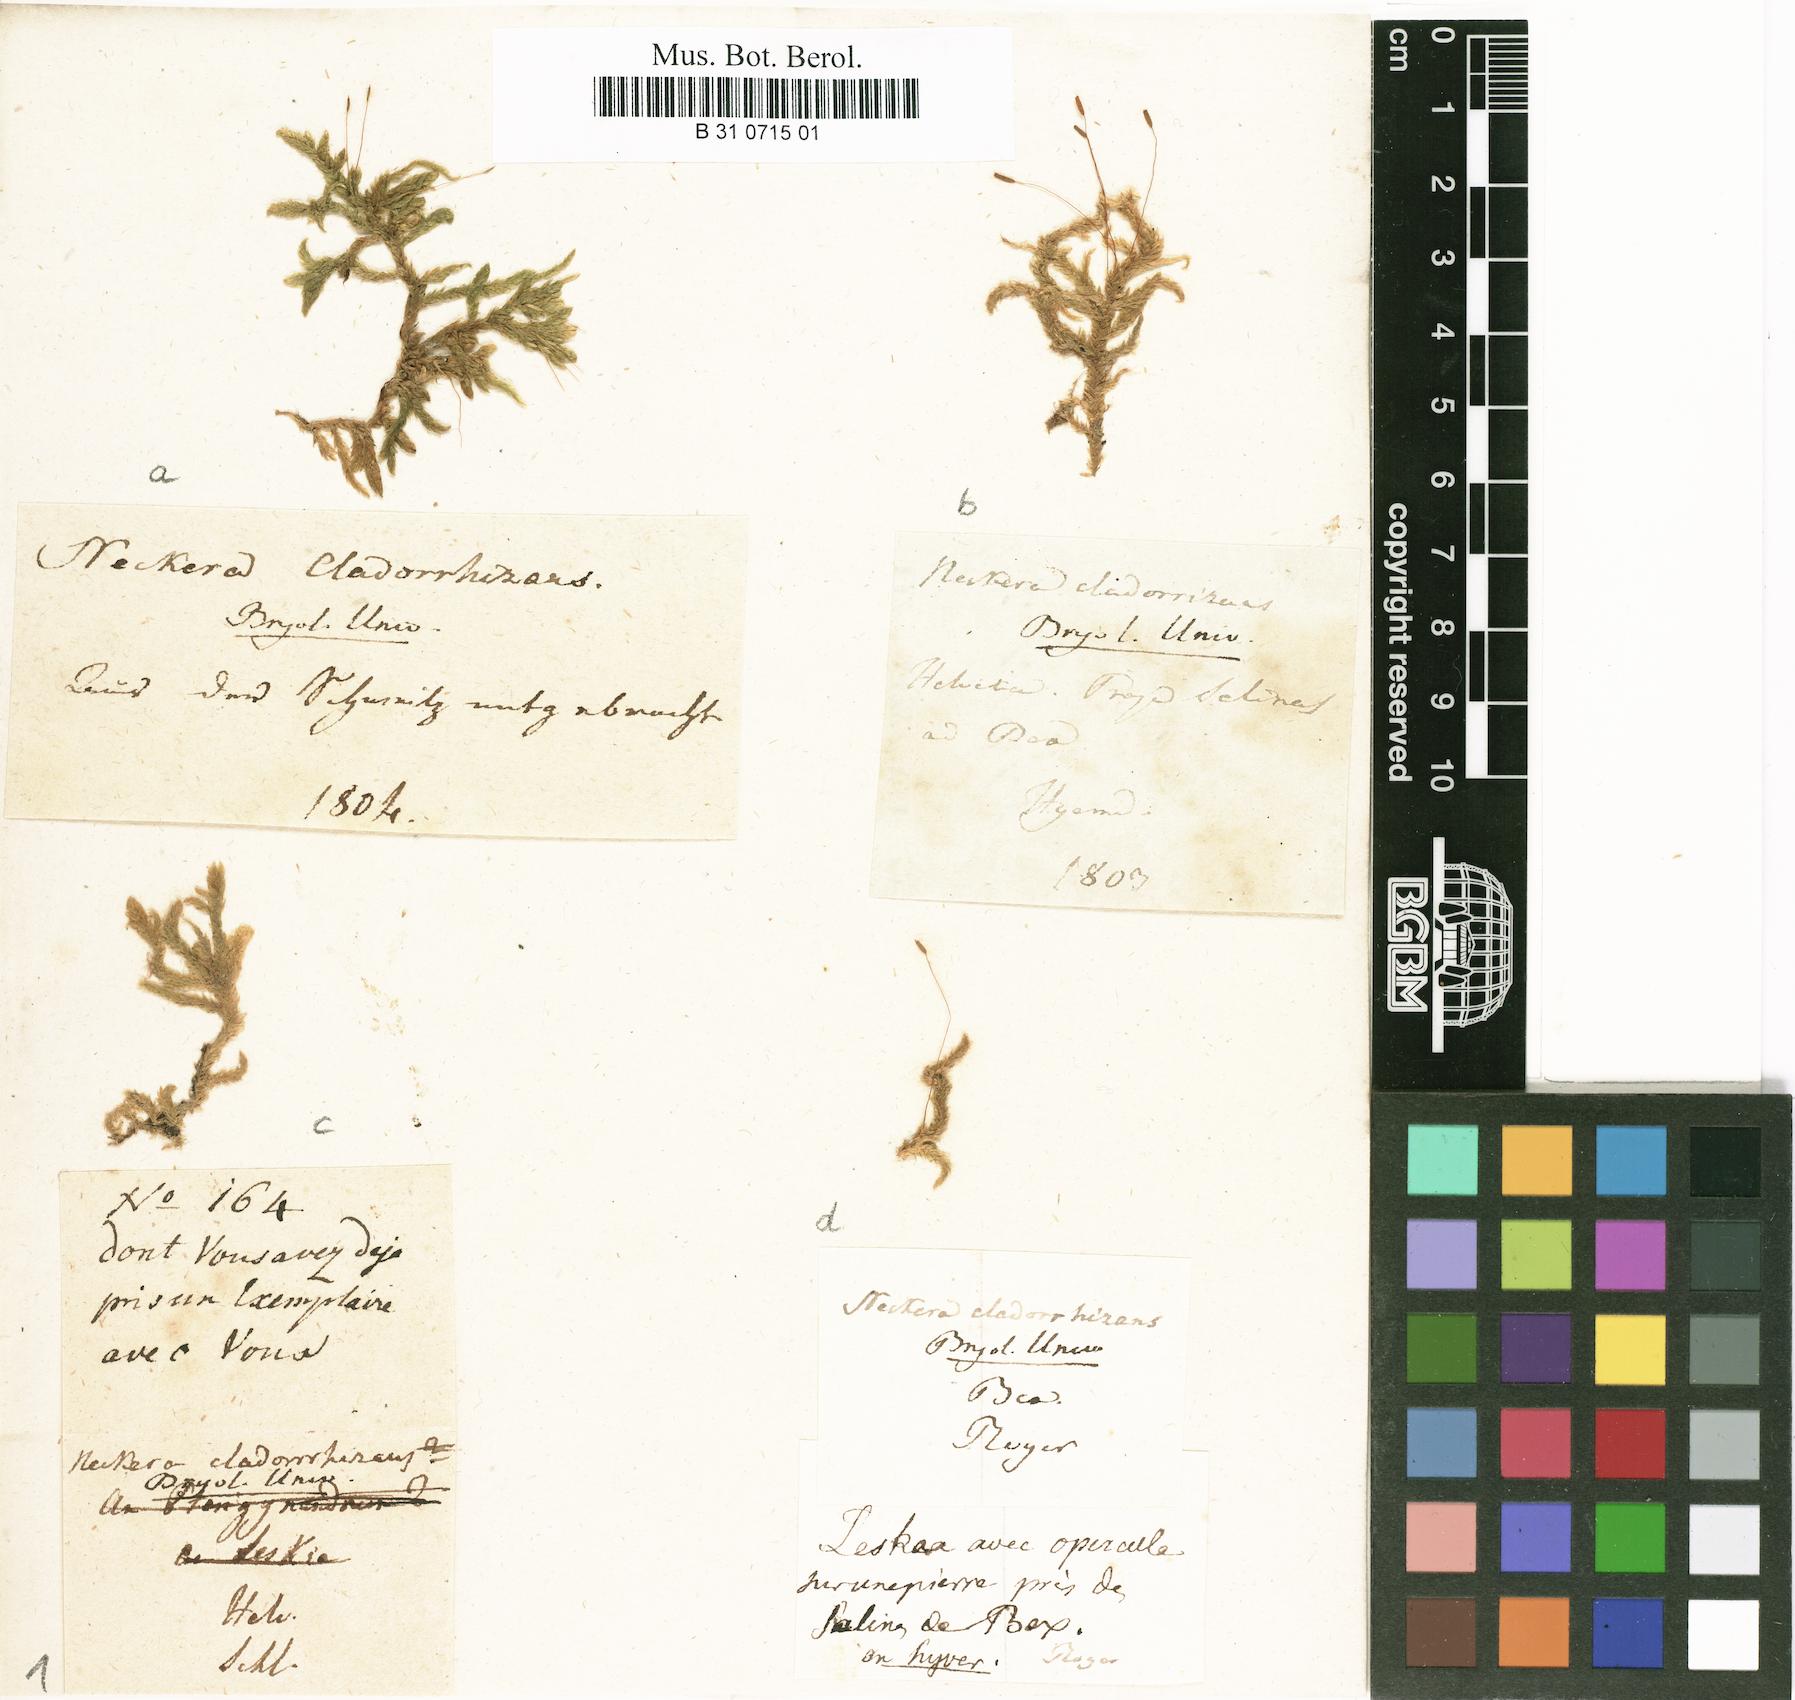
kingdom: Plantae
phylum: Bryophyta
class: Bryopsida
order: Hypnales
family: Entodontaceae
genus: Entodon
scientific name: Entodon cladorrhizans
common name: Flat-stemmed entodon moss
